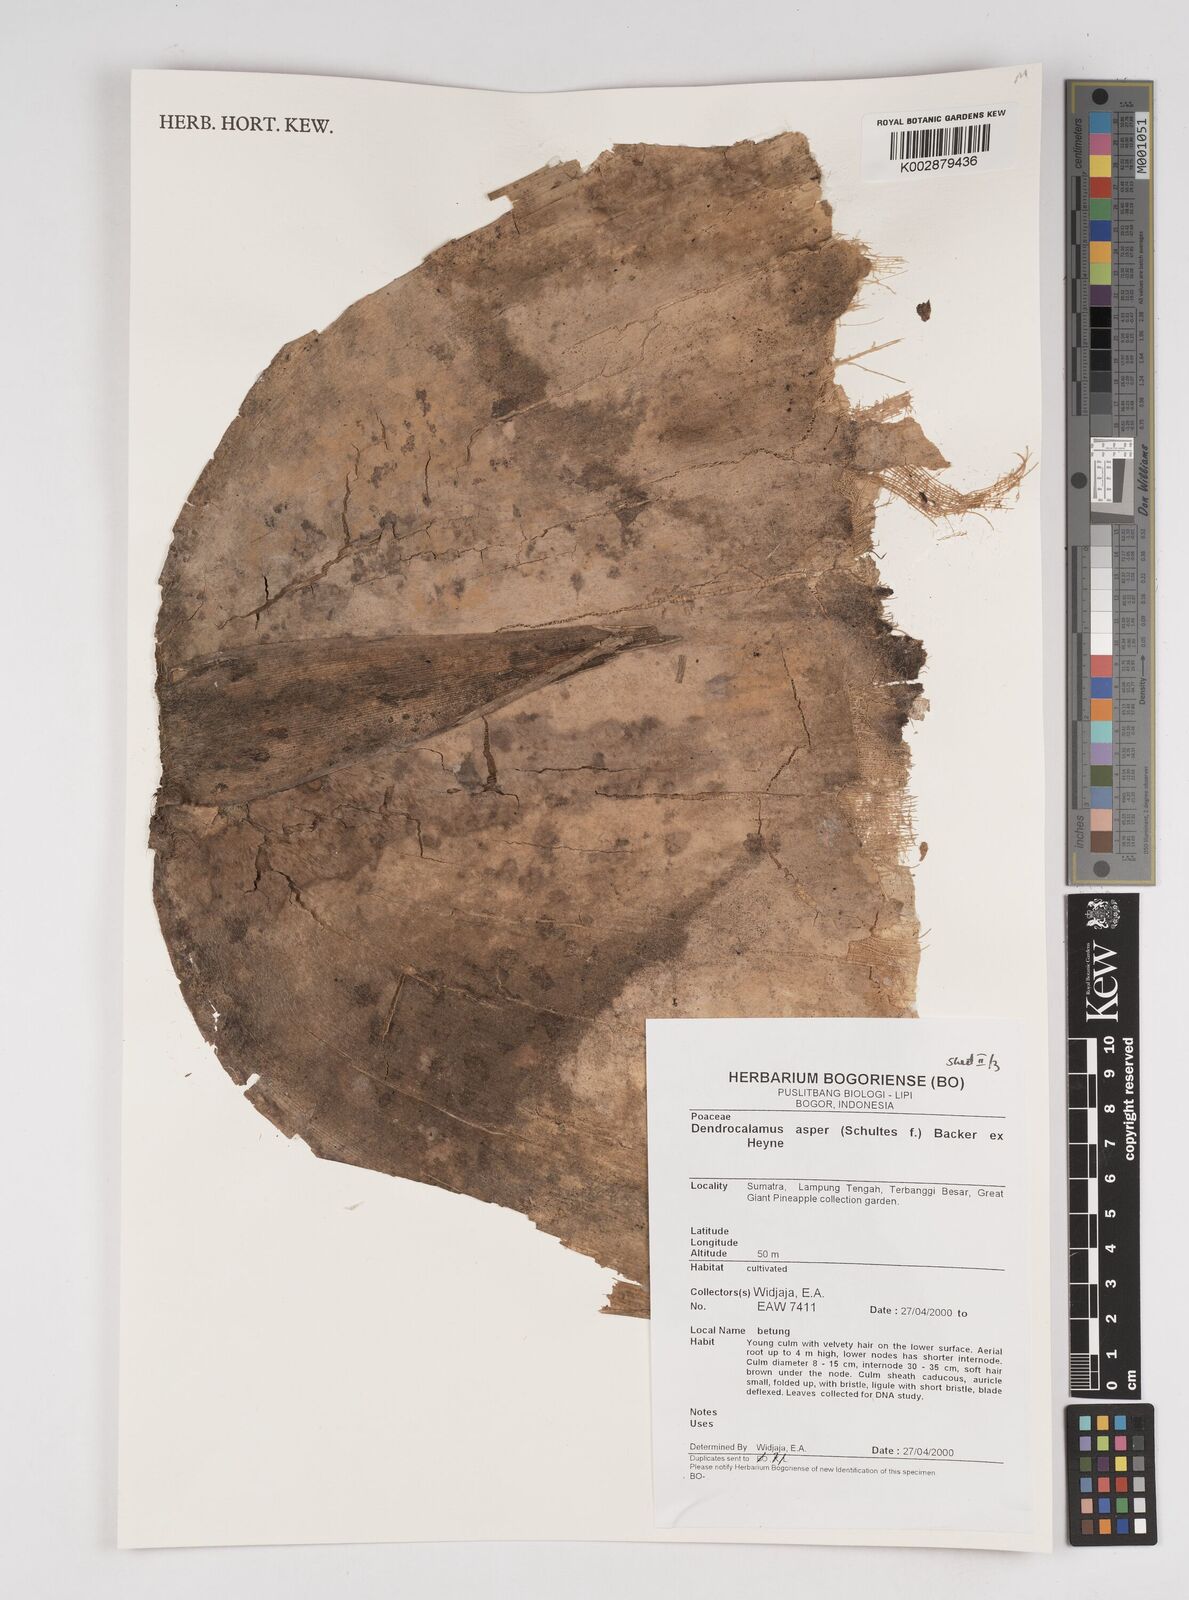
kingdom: Plantae
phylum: Tracheophyta
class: Liliopsida
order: Poales
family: Poaceae
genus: Dendrocalamus
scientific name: Dendrocalamus asper
